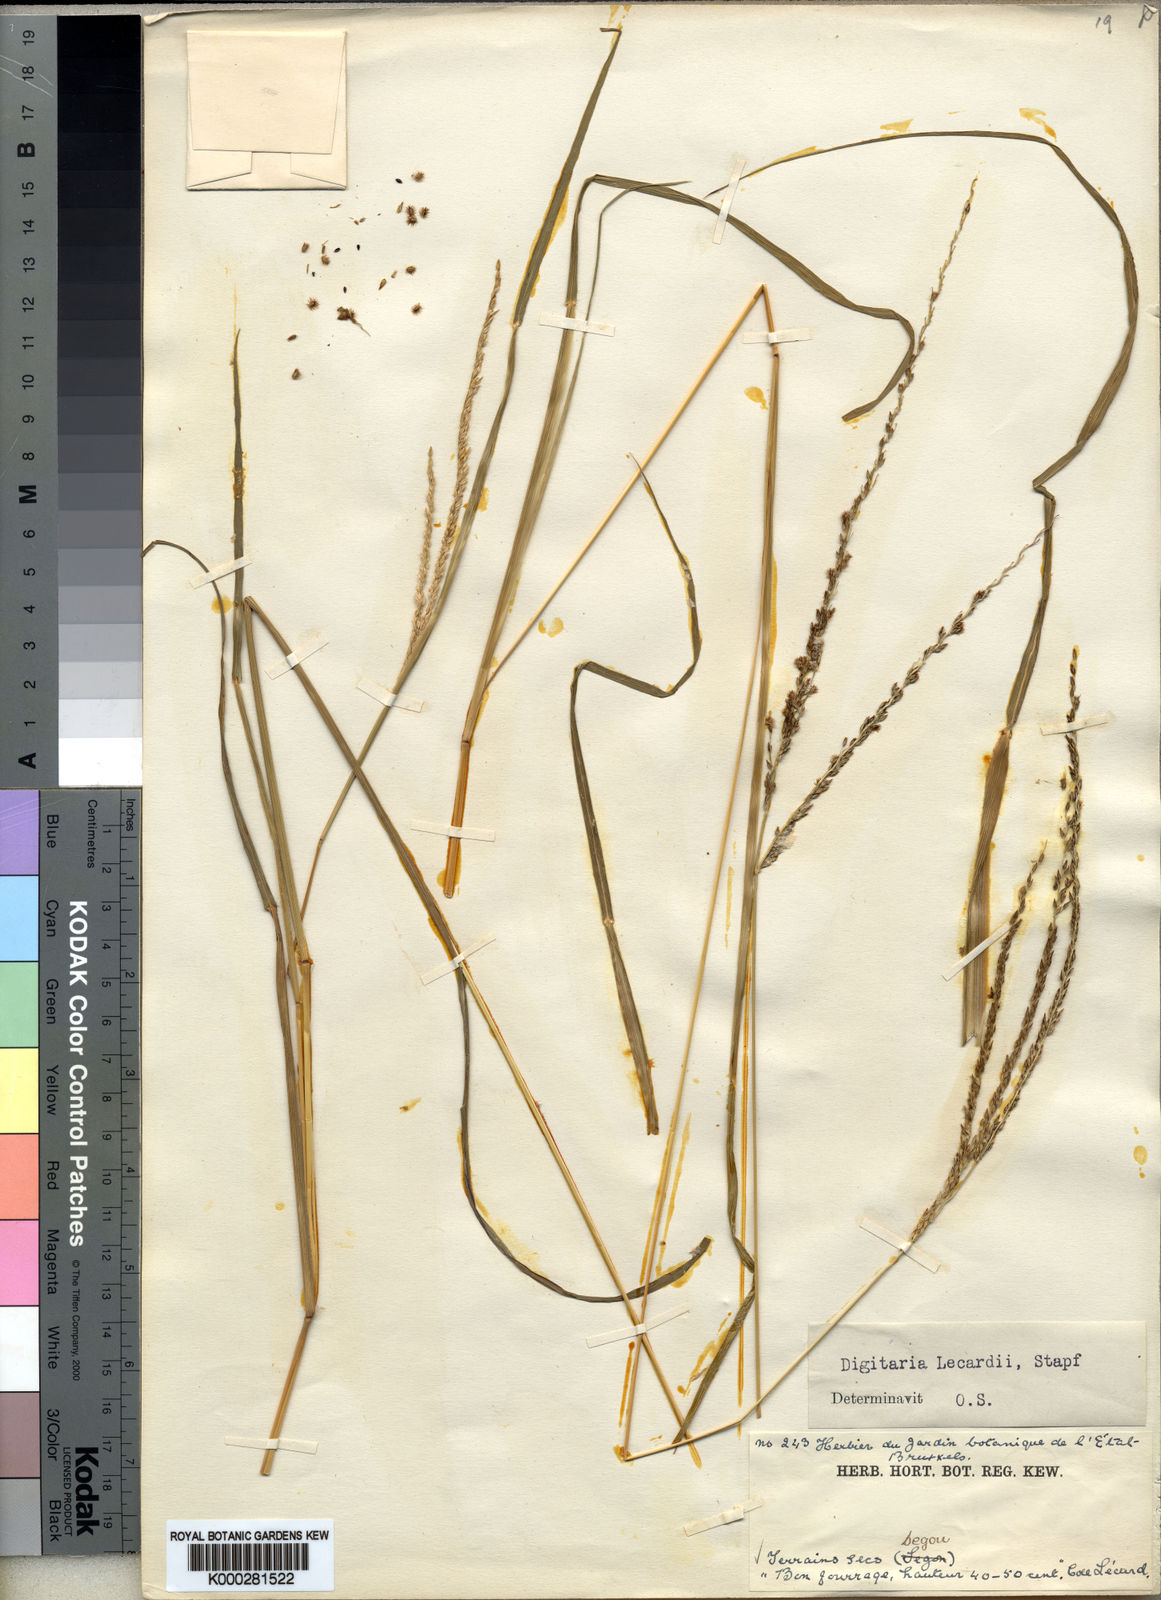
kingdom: Plantae
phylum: Tracheophyta
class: Liliopsida
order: Poales
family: Poaceae
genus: Digitaria
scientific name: Digitaria argillacea
